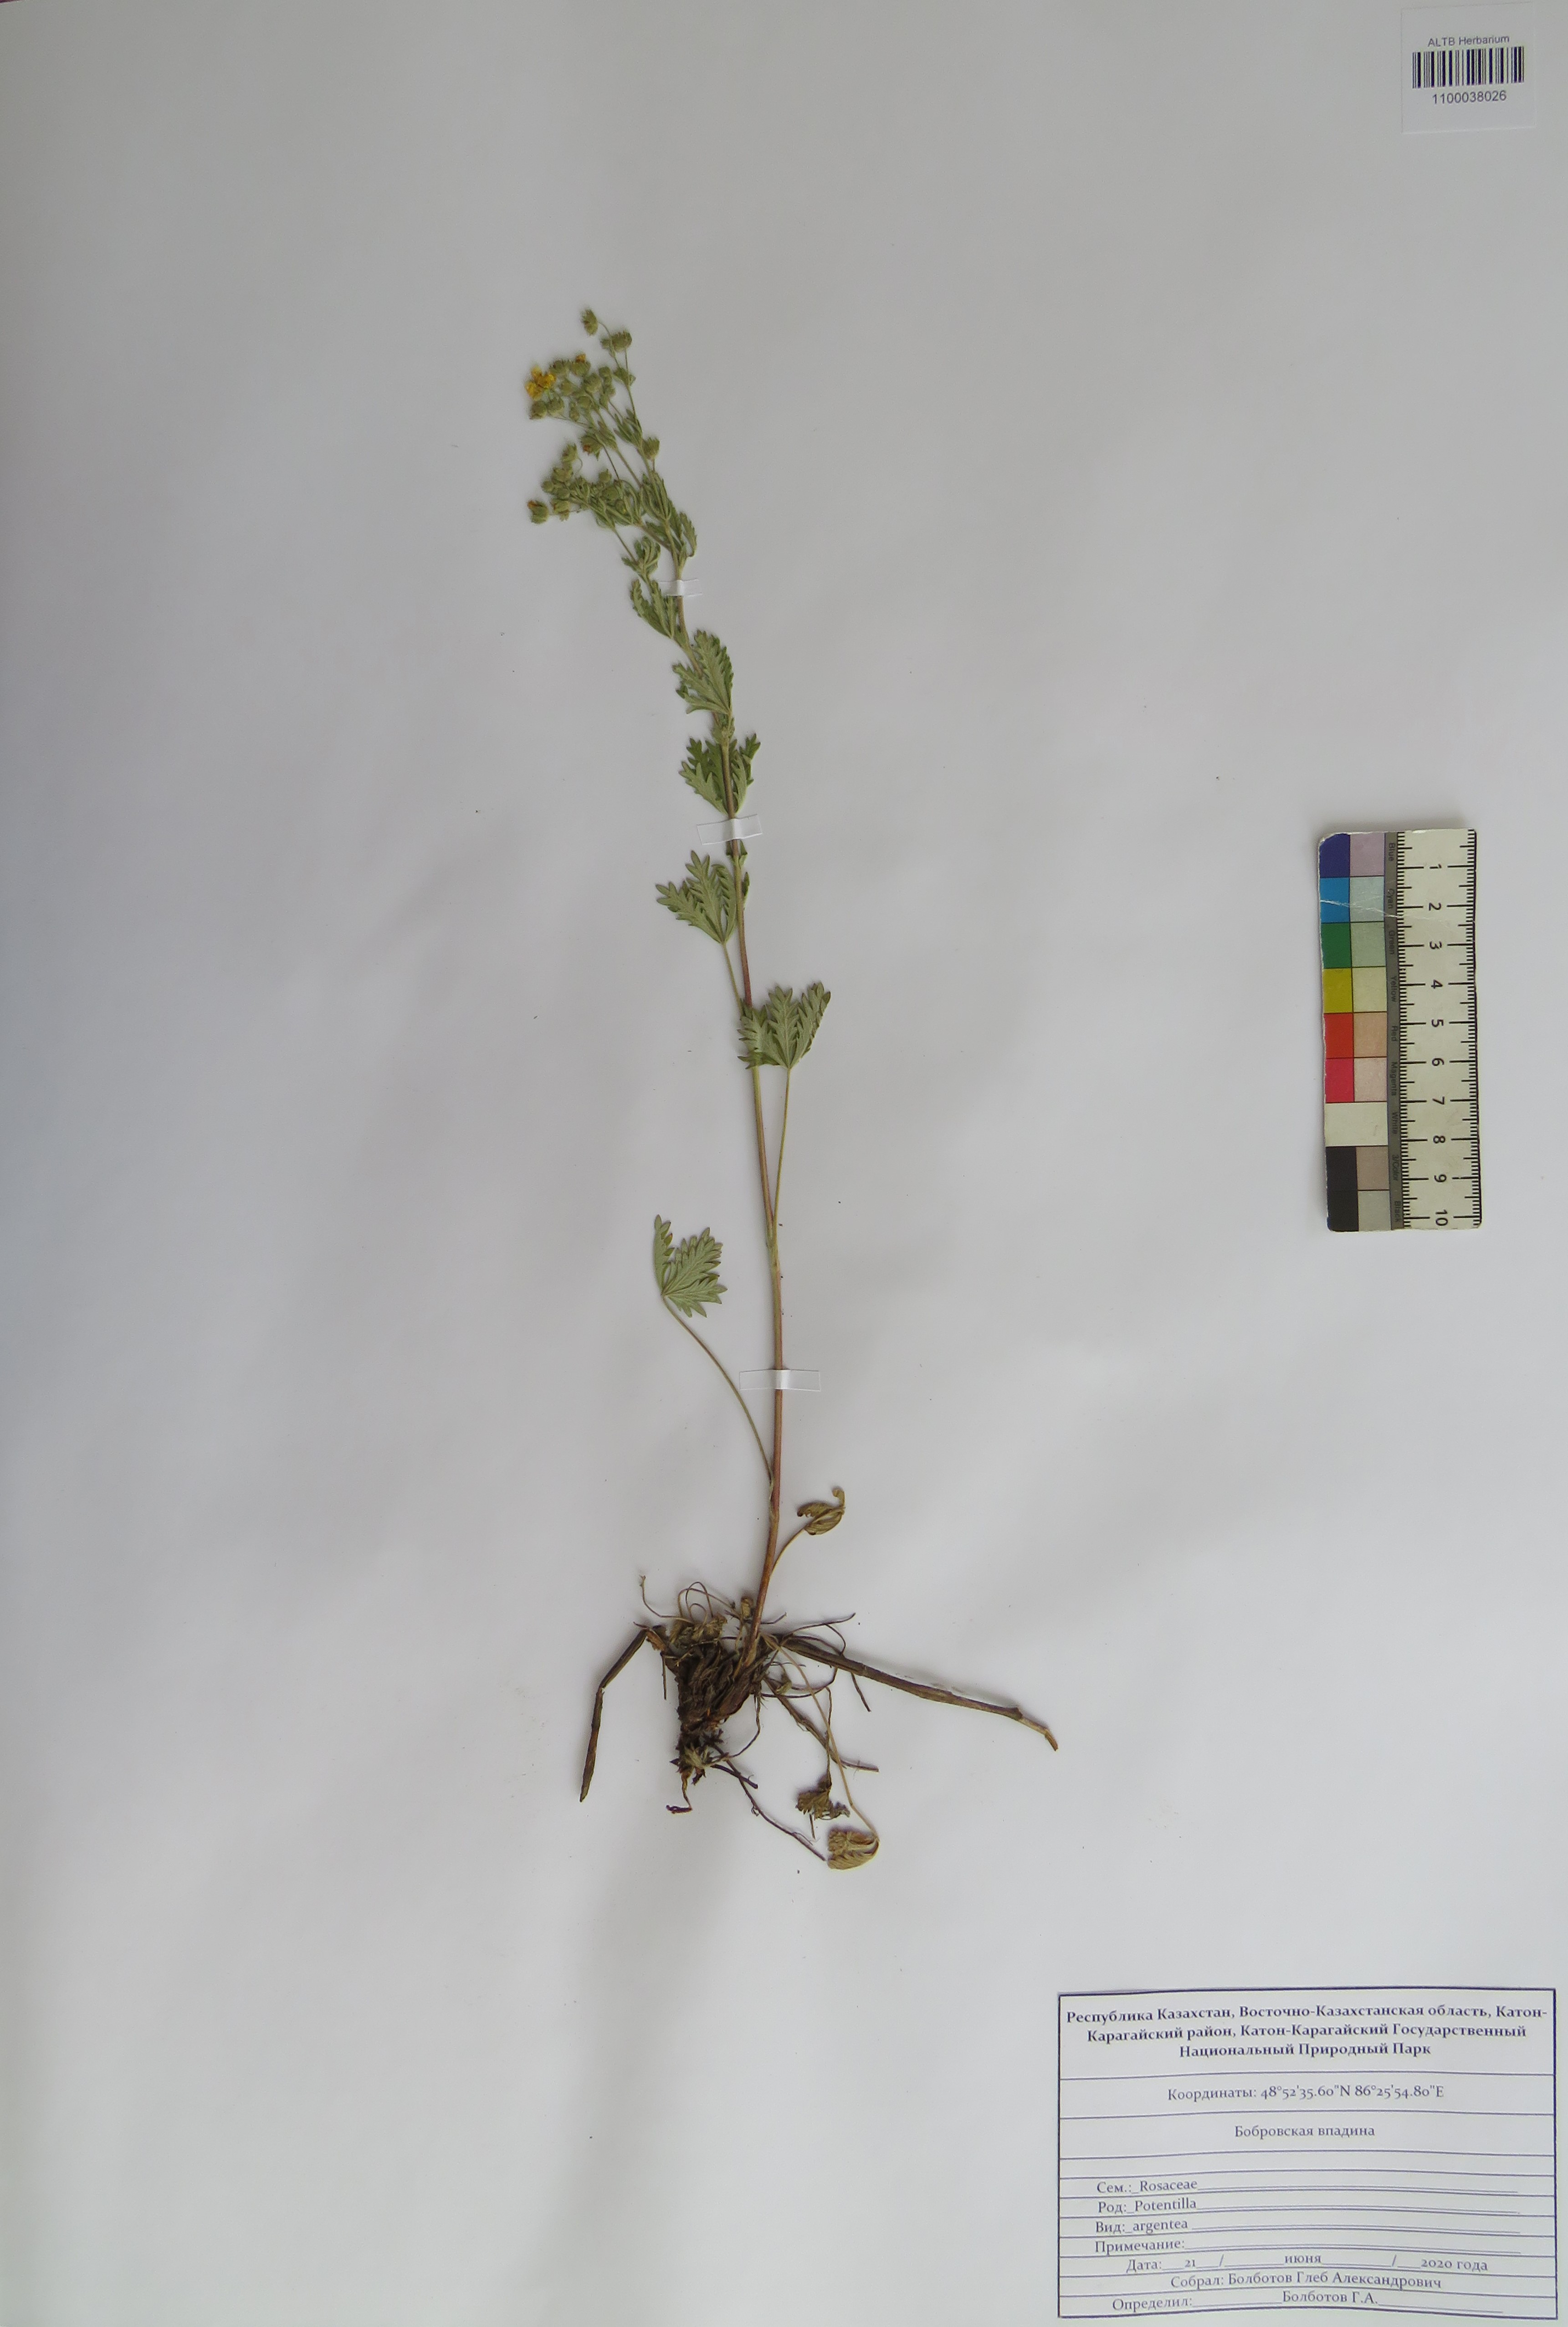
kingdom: Plantae
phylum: Tracheophyta
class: Magnoliopsida
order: Rosales
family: Rosaceae
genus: Potentilla
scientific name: Potentilla argentea
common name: Hoary cinquefoil
